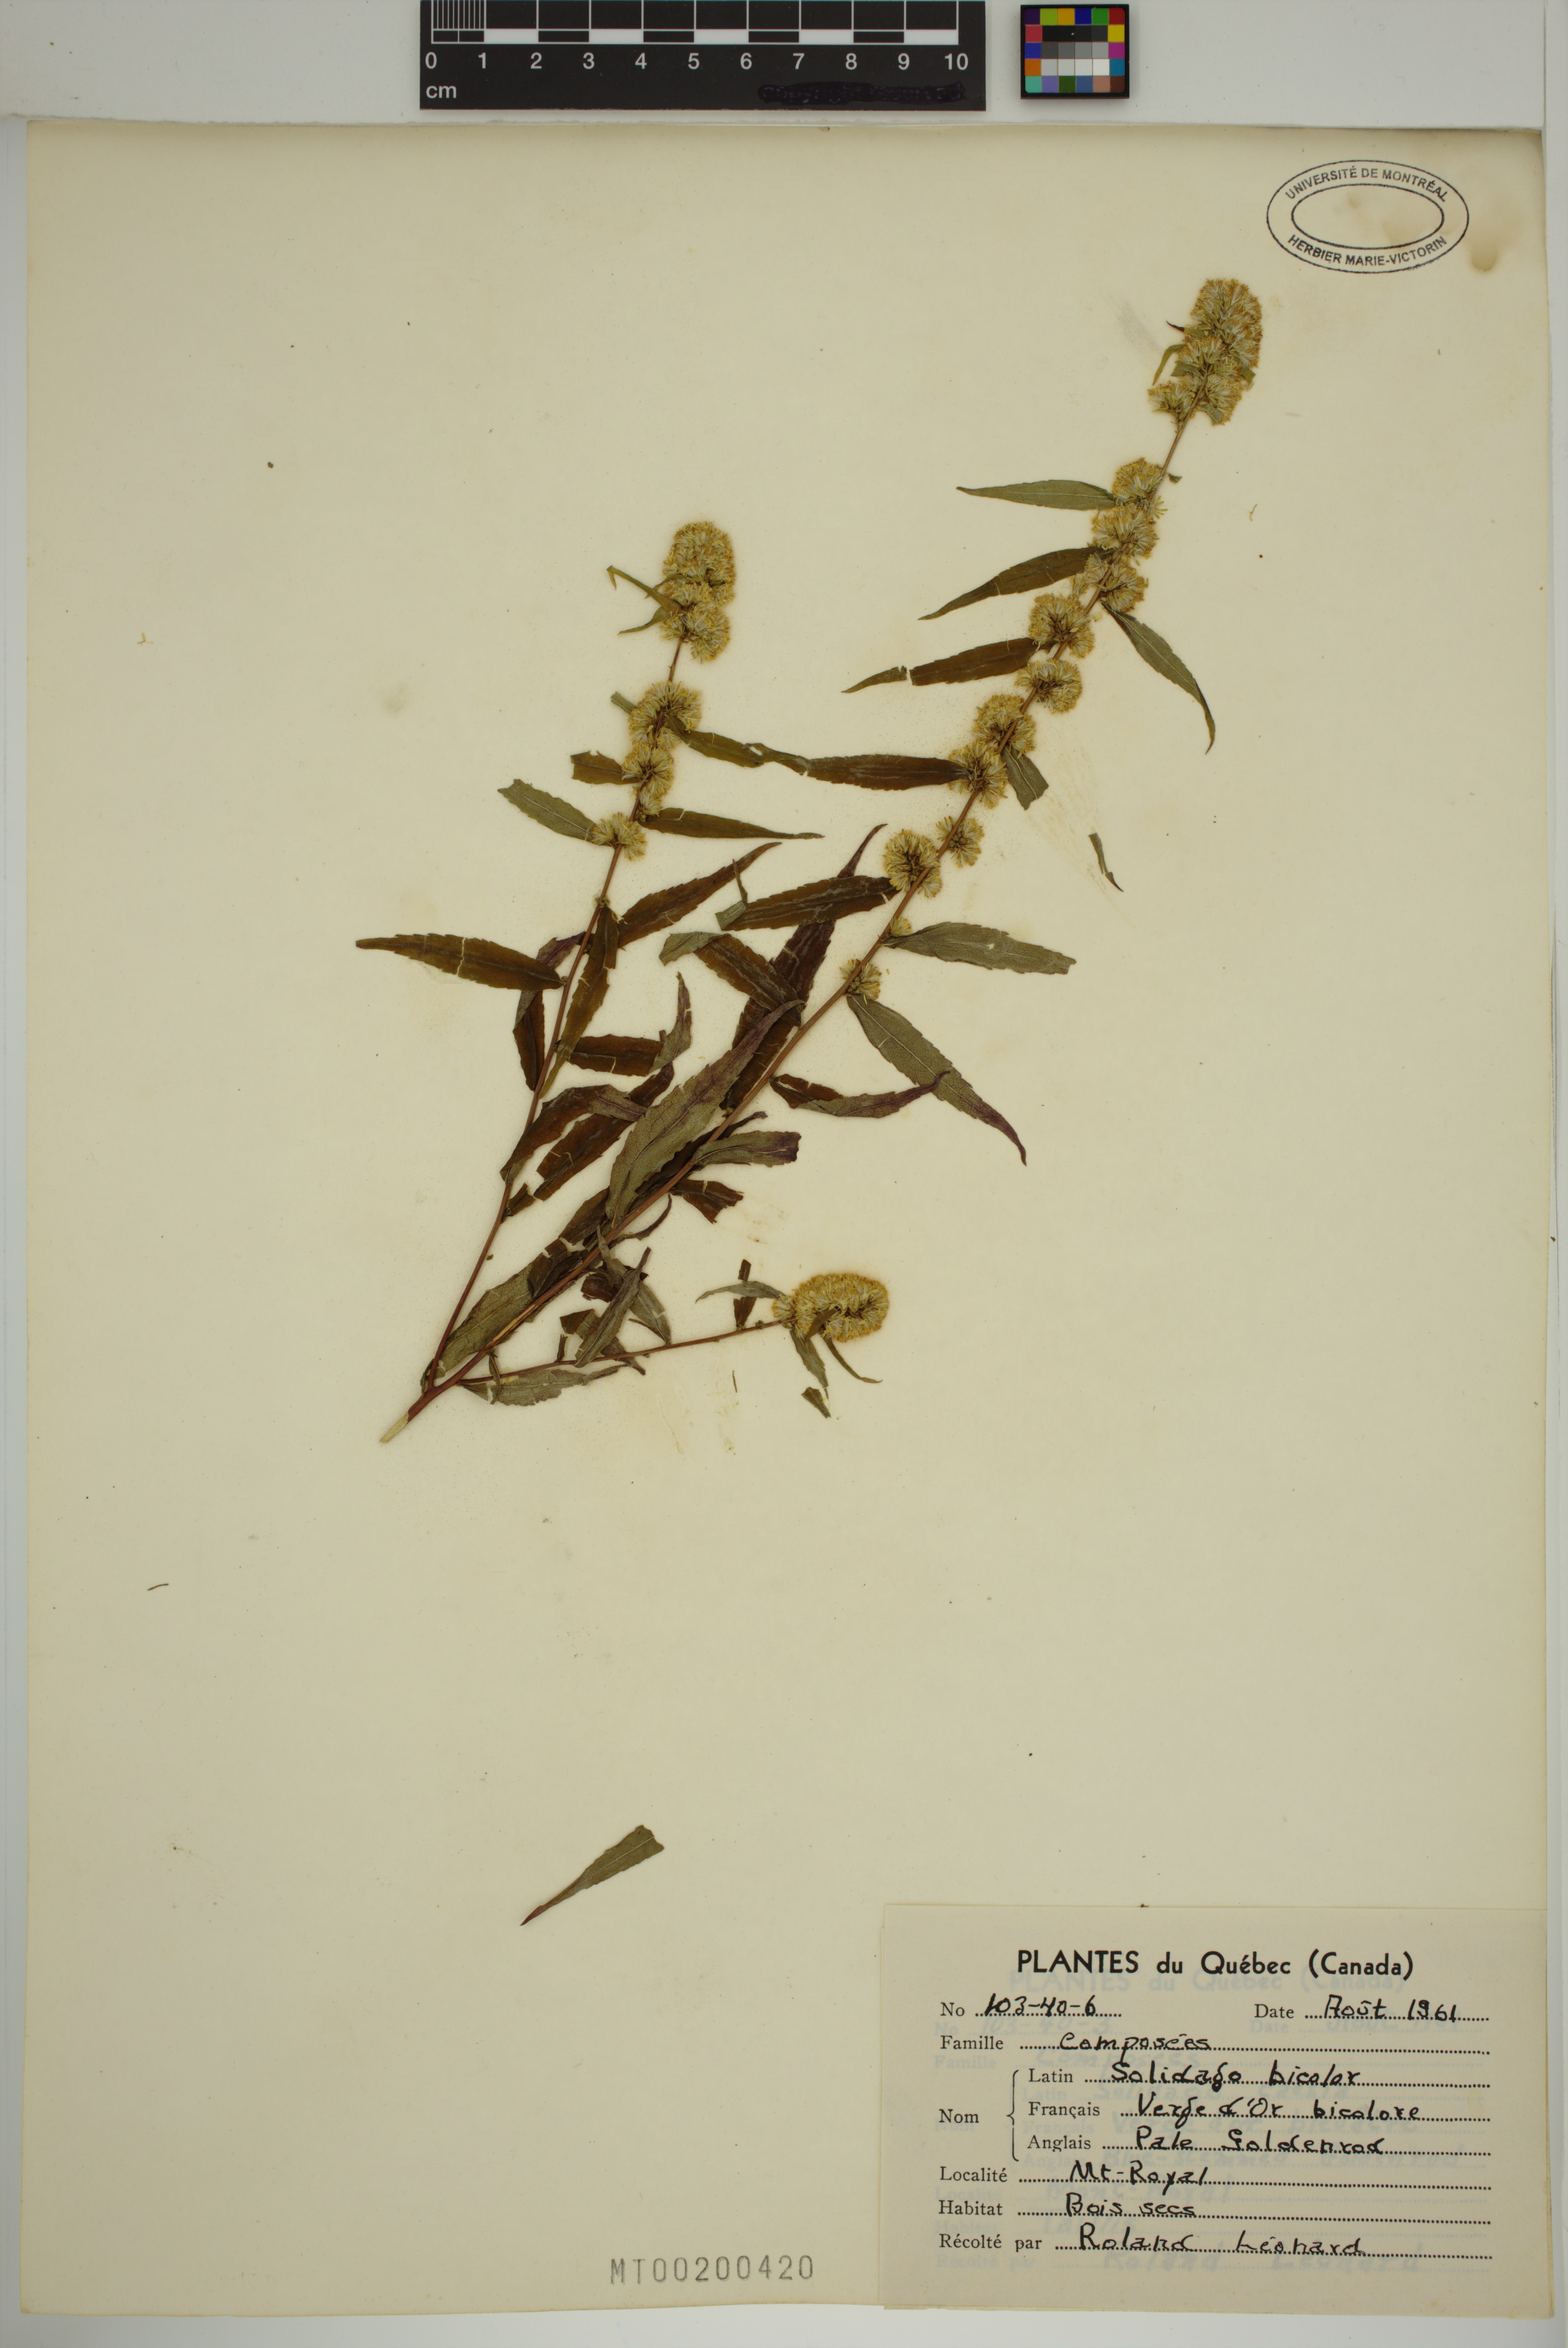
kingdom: Plantae
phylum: Tracheophyta
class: Magnoliopsida
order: Asterales
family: Asteraceae
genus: Solidago
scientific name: Solidago bicolor
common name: Silverrod
